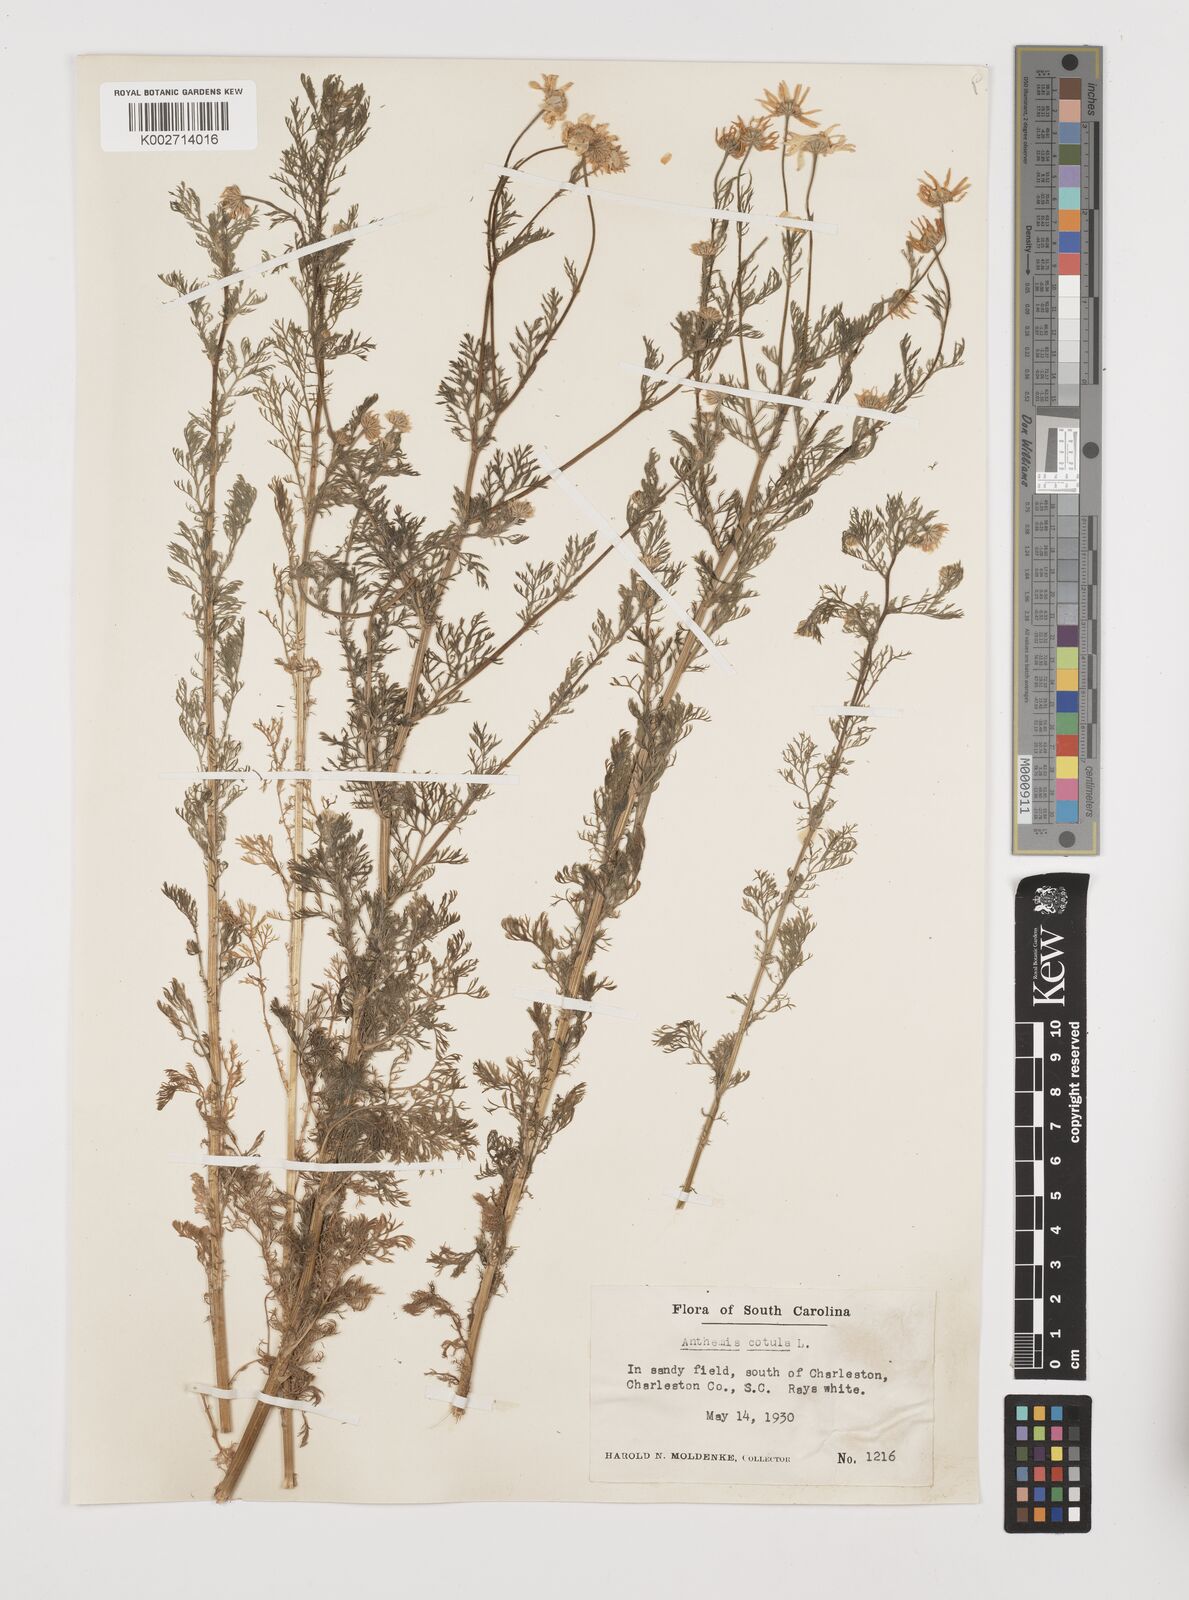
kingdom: Plantae
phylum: Tracheophyta
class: Magnoliopsida
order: Asterales
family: Asteraceae
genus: Anthemis
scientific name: Anthemis cotula
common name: Stinking chamomile
